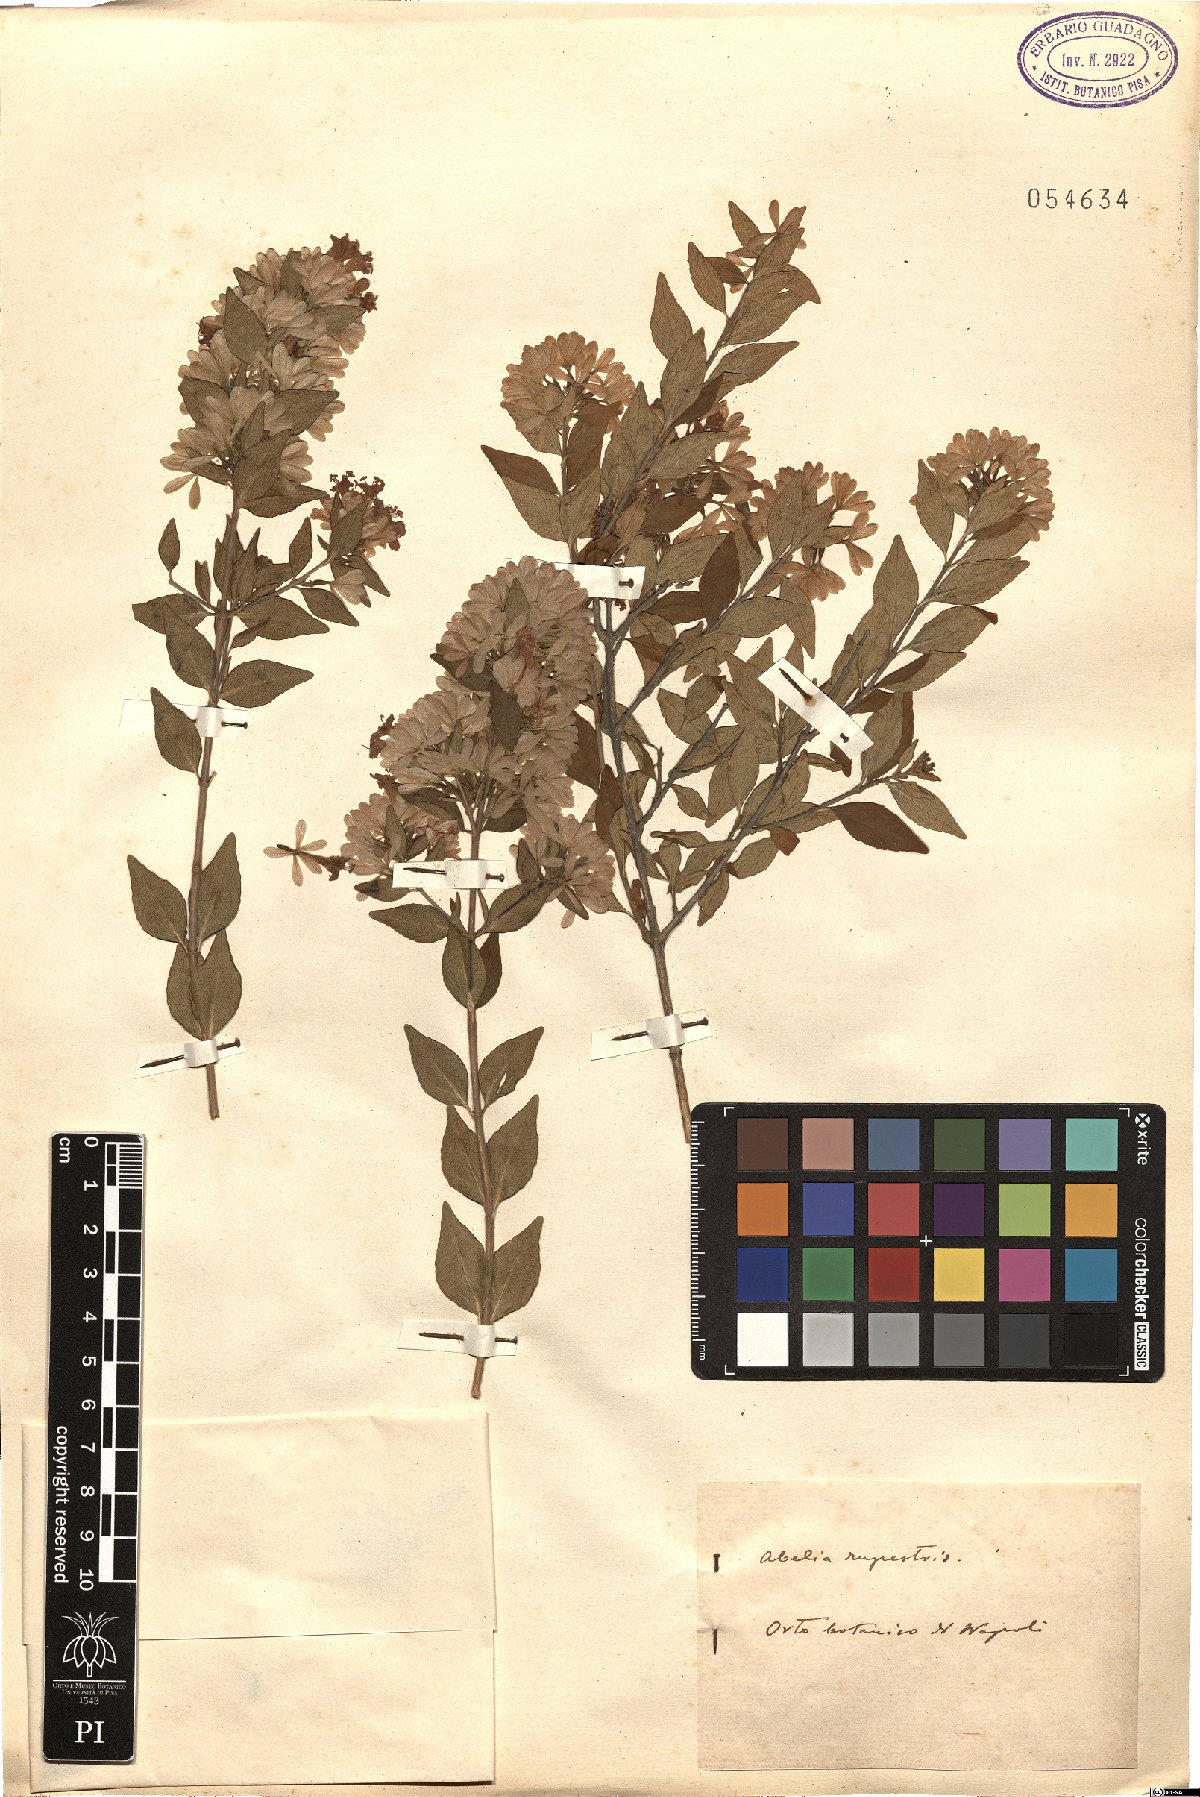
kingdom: Plantae
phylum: Tracheophyta
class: Magnoliopsida
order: Dipsacales
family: Caprifoliaceae
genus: Abelia
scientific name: Abelia chinensis
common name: Chinese abelia
